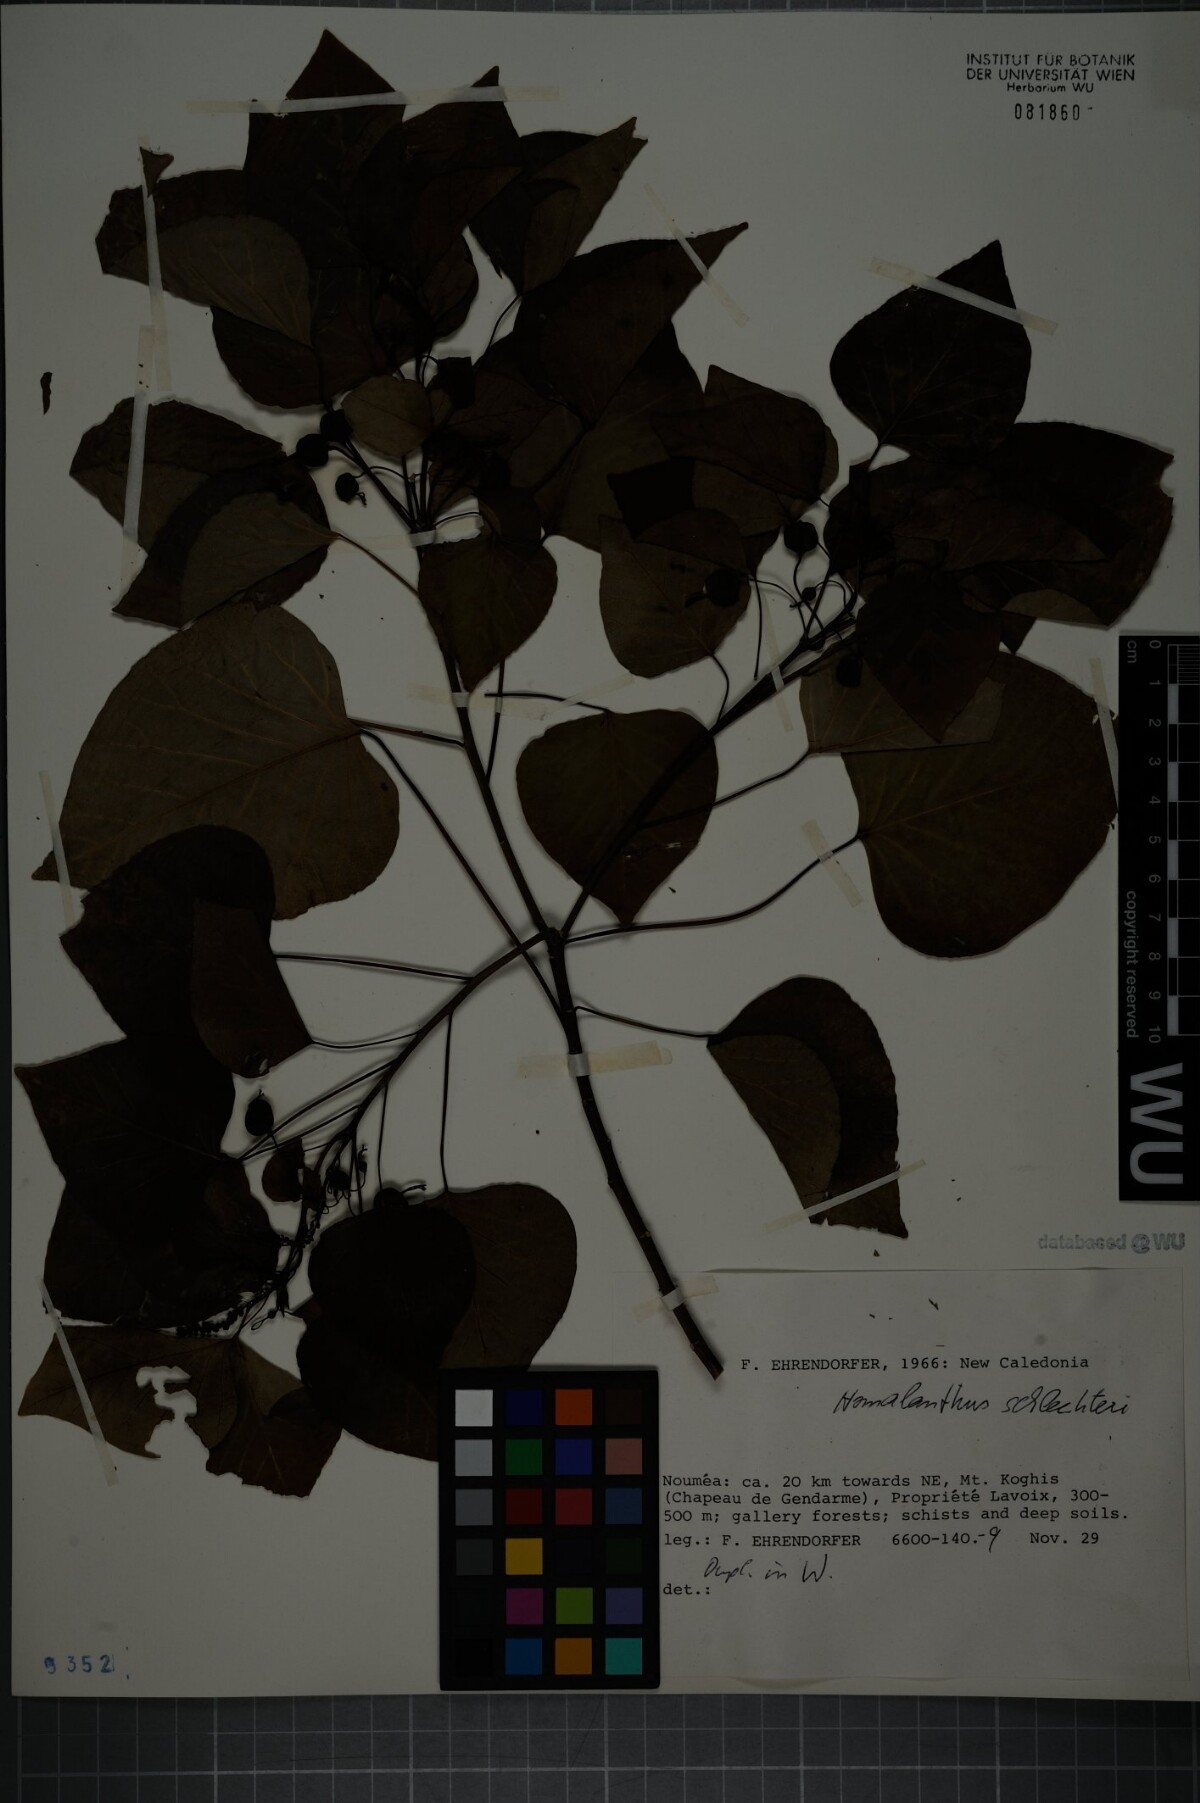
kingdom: Plantae
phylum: Tracheophyta
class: Magnoliopsida
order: Malpighiales
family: Euphorbiaceae
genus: Homalanthus
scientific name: Homalanthus schlechteri
